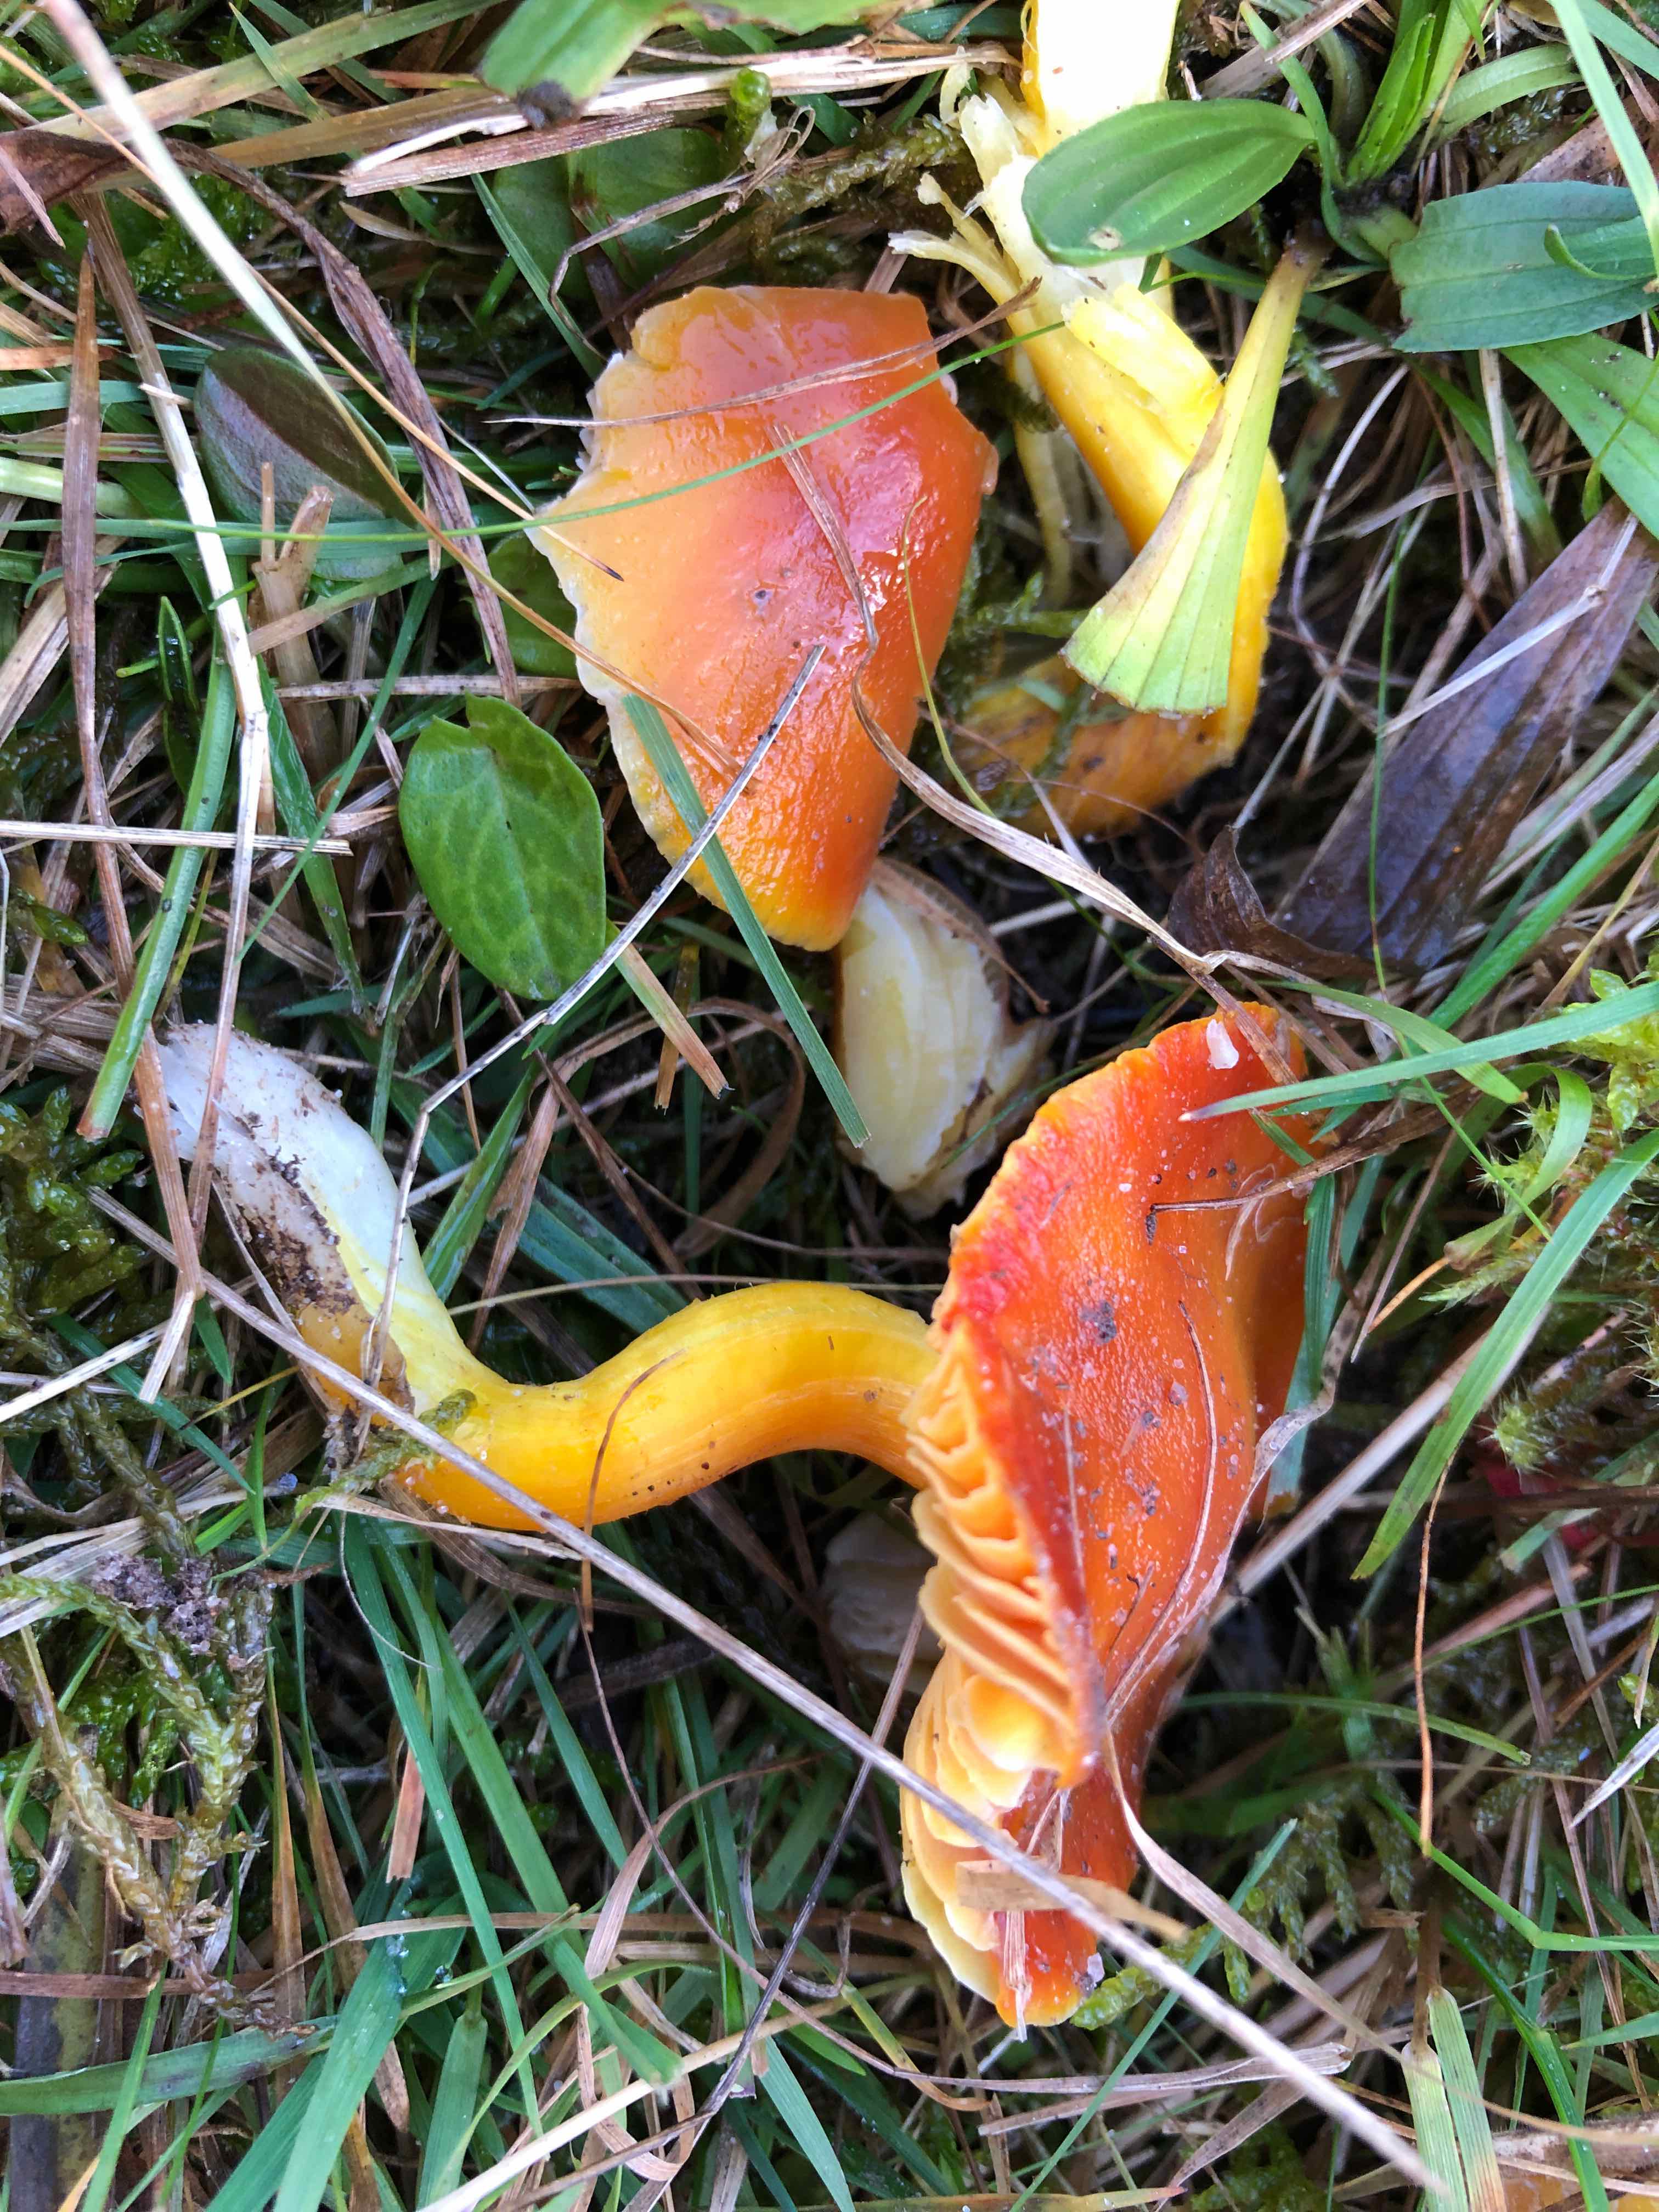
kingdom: Fungi
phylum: Basidiomycota
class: Agaricomycetes
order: Agaricales
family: Hygrophoraceae
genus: Hygrocybe
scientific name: Hygrocybe punicea
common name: skarlagen-vokshat
